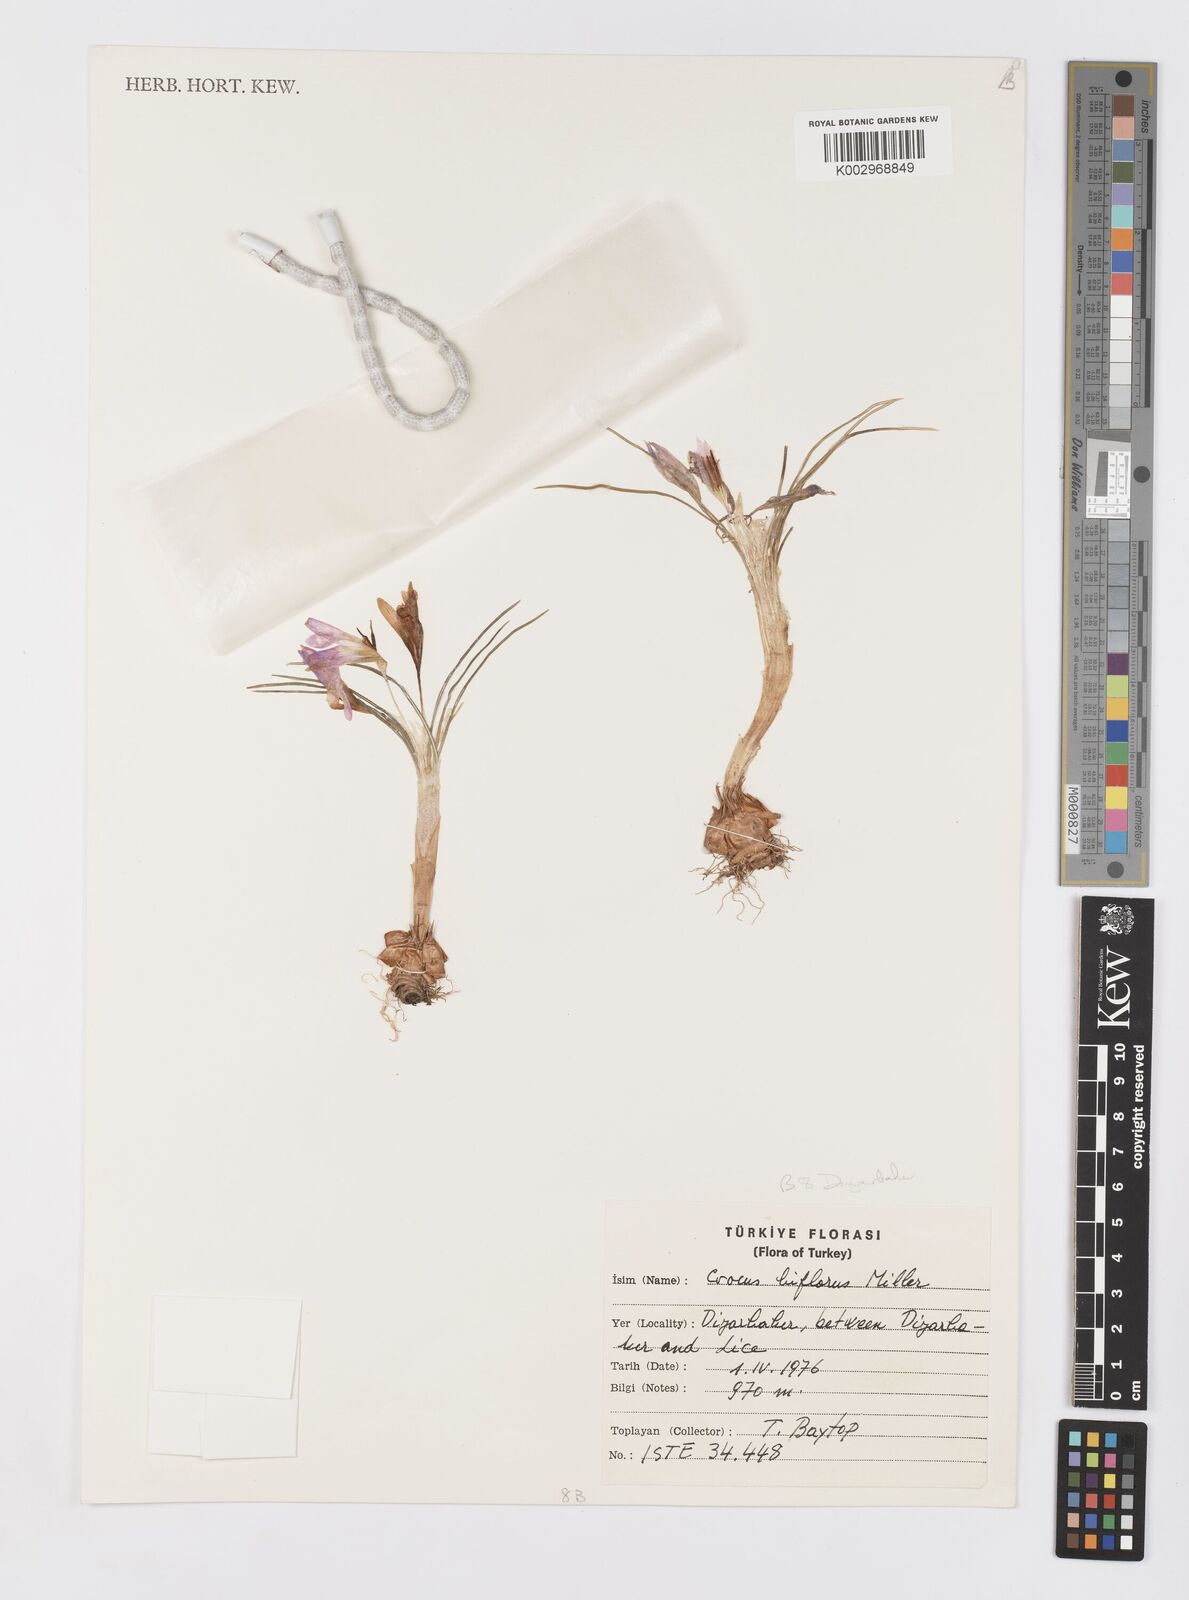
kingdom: Plantae
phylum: Tracheophyta
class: Liliopsida
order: Asparagales
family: Iridaceae
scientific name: Iridaceae
